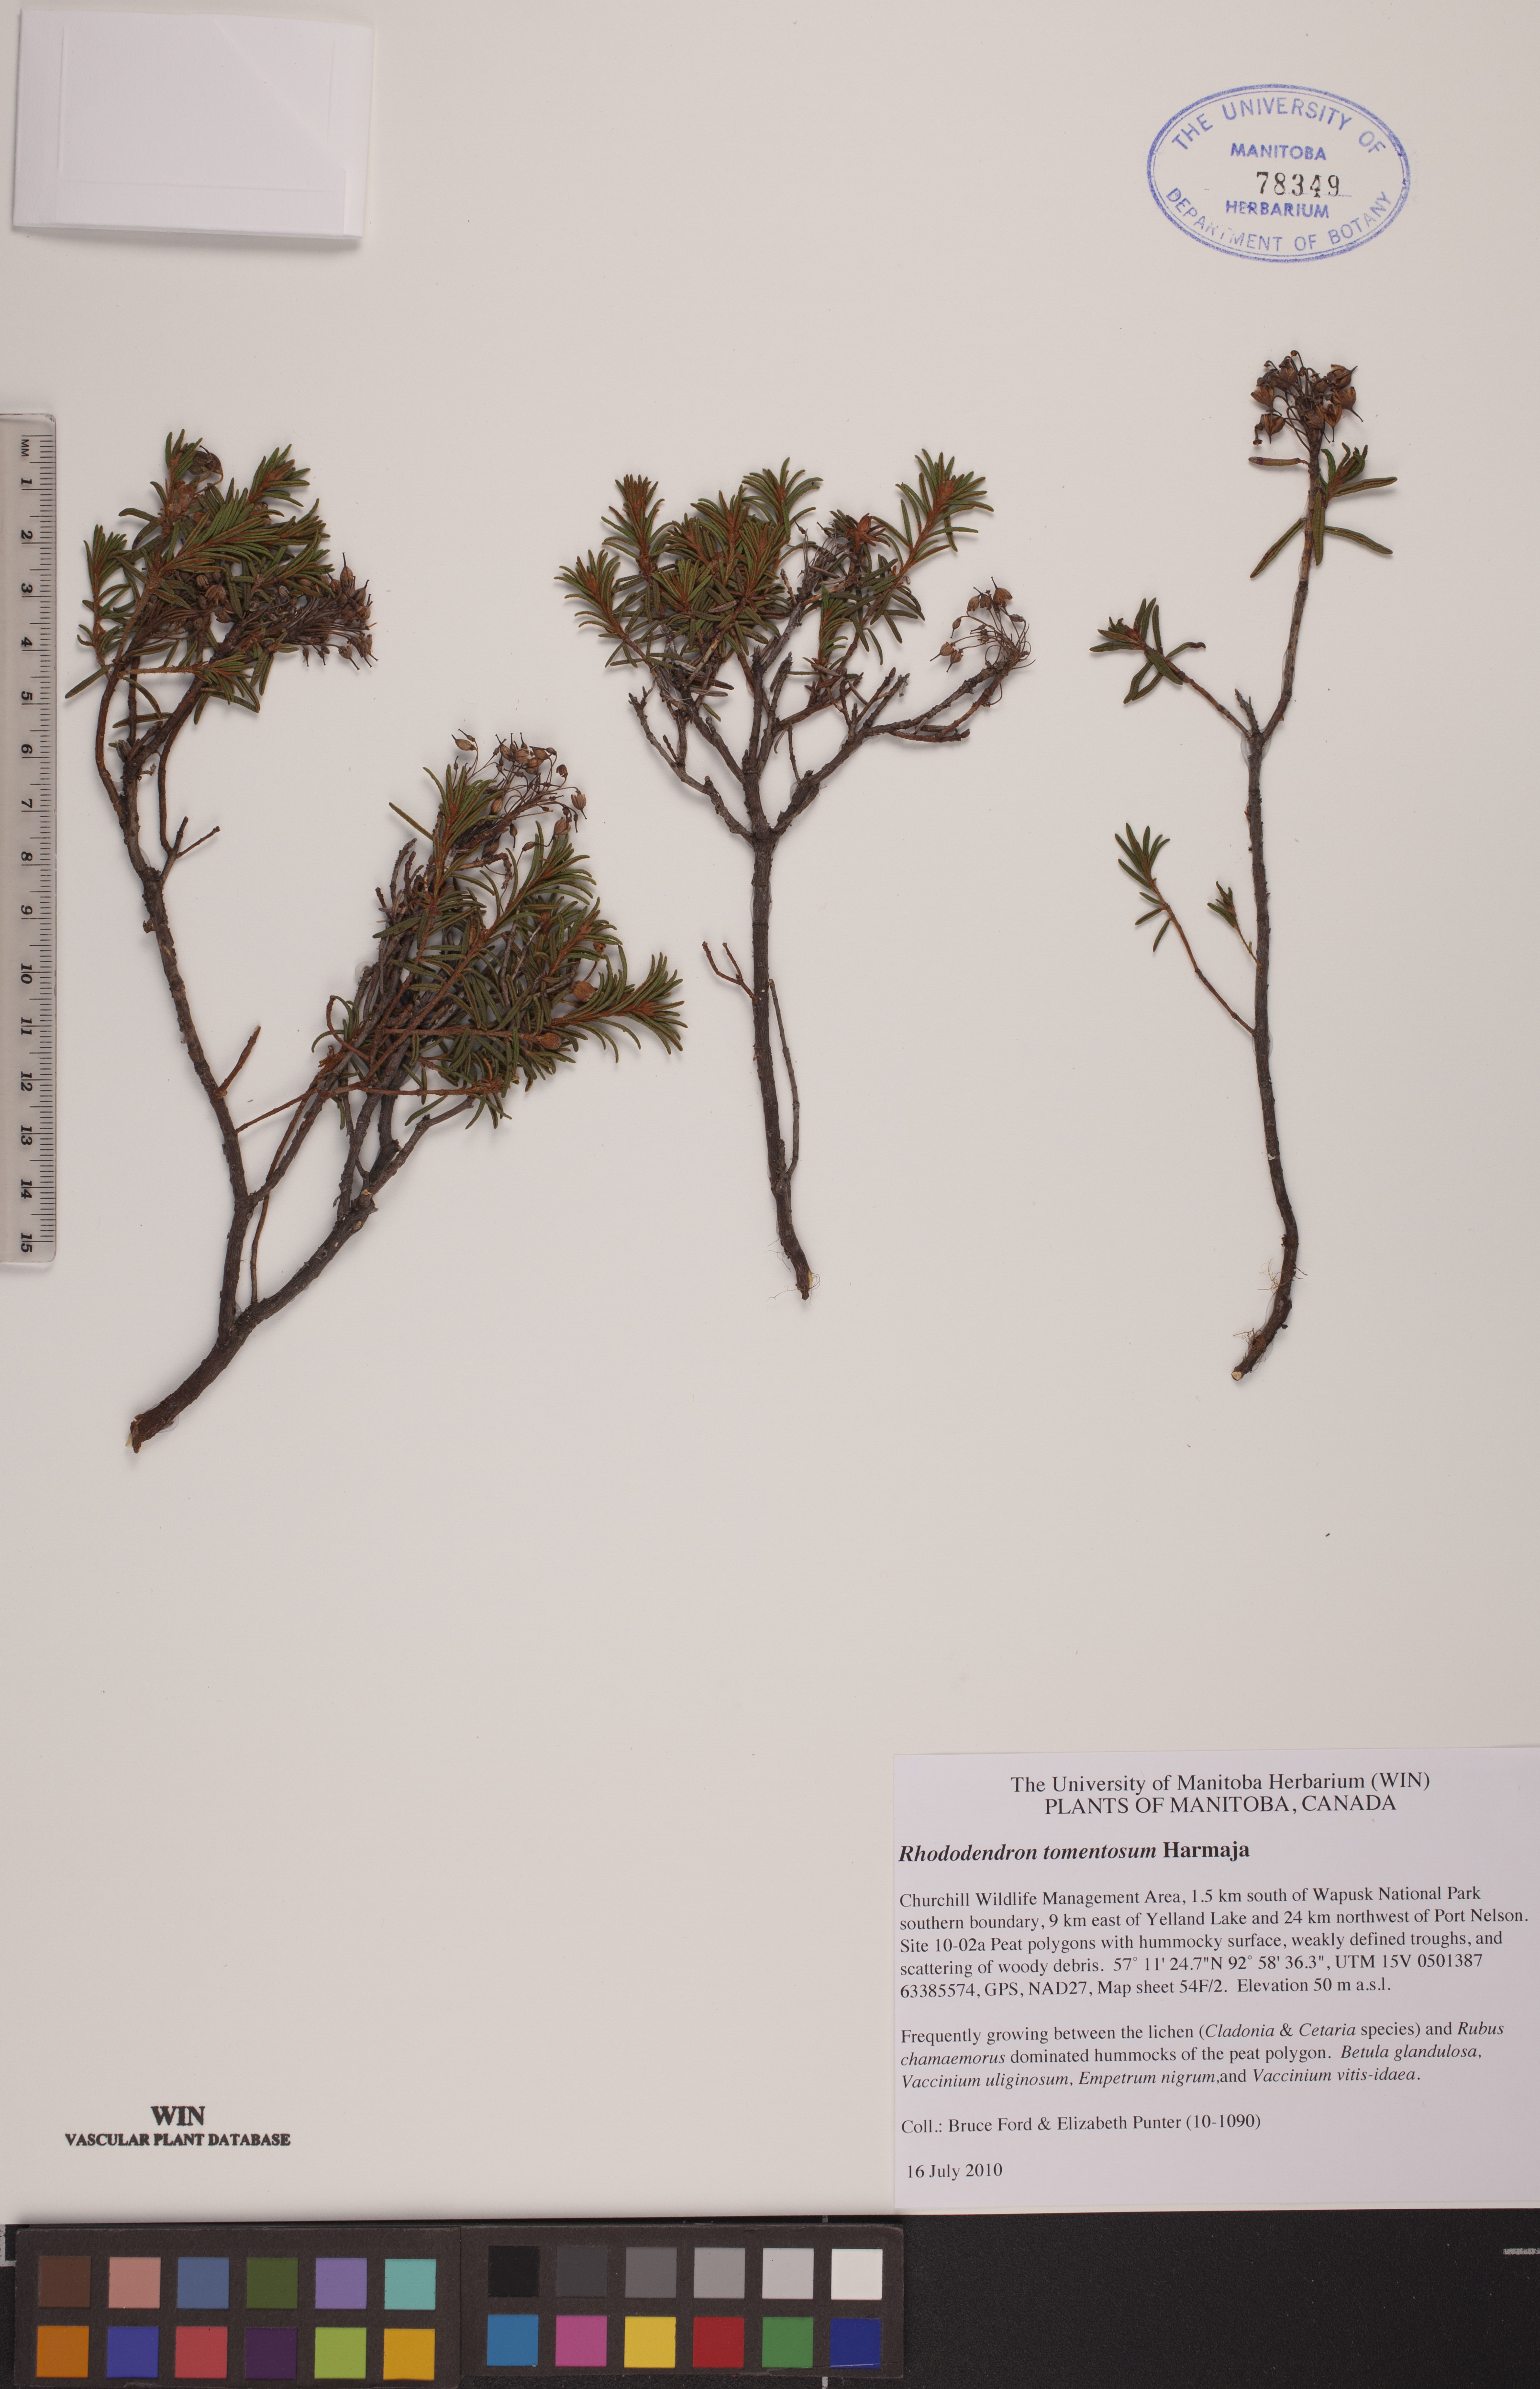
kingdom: Plantae
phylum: Tracheophyta
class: Magnoliopsida
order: Ericales
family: Ericaceae
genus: Rhododendron
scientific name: Rhododendron tomentosum
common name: Marsh labrador tea
